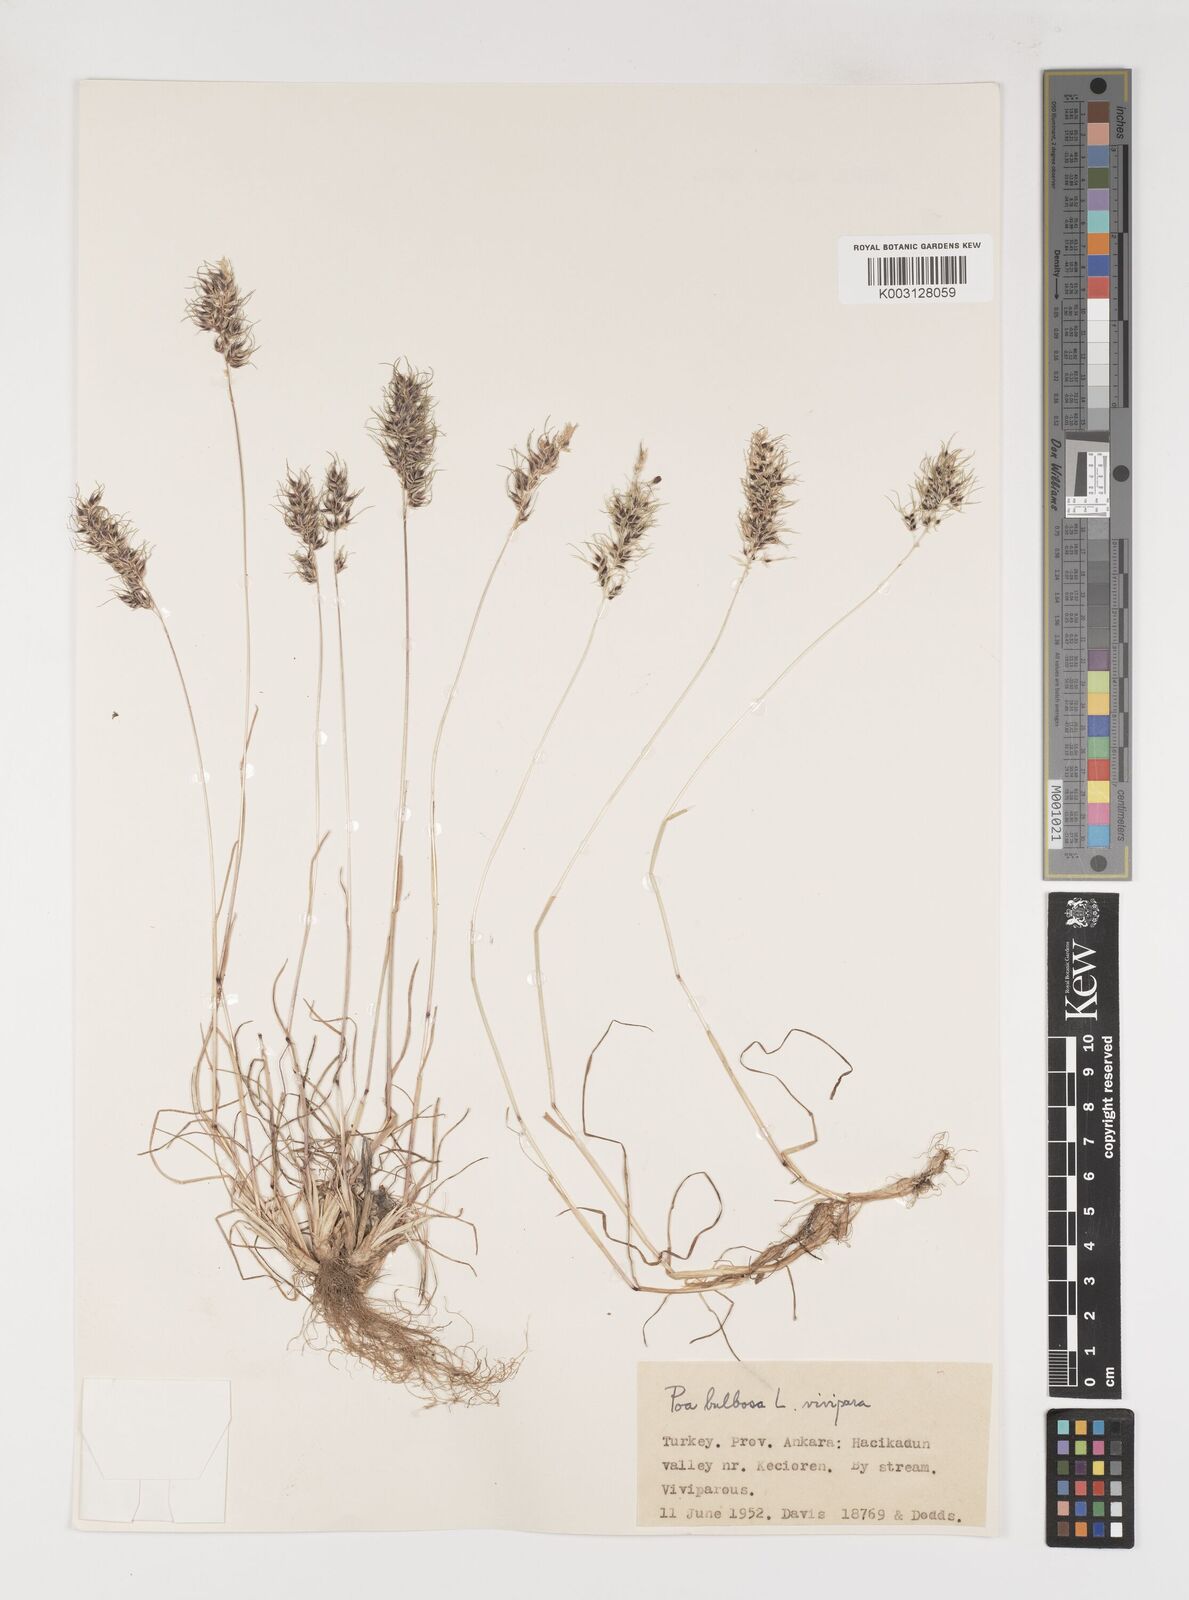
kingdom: Plantae
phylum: Tracheophyta
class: Liliopsida
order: Poales
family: Poaceae
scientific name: Poaceae
